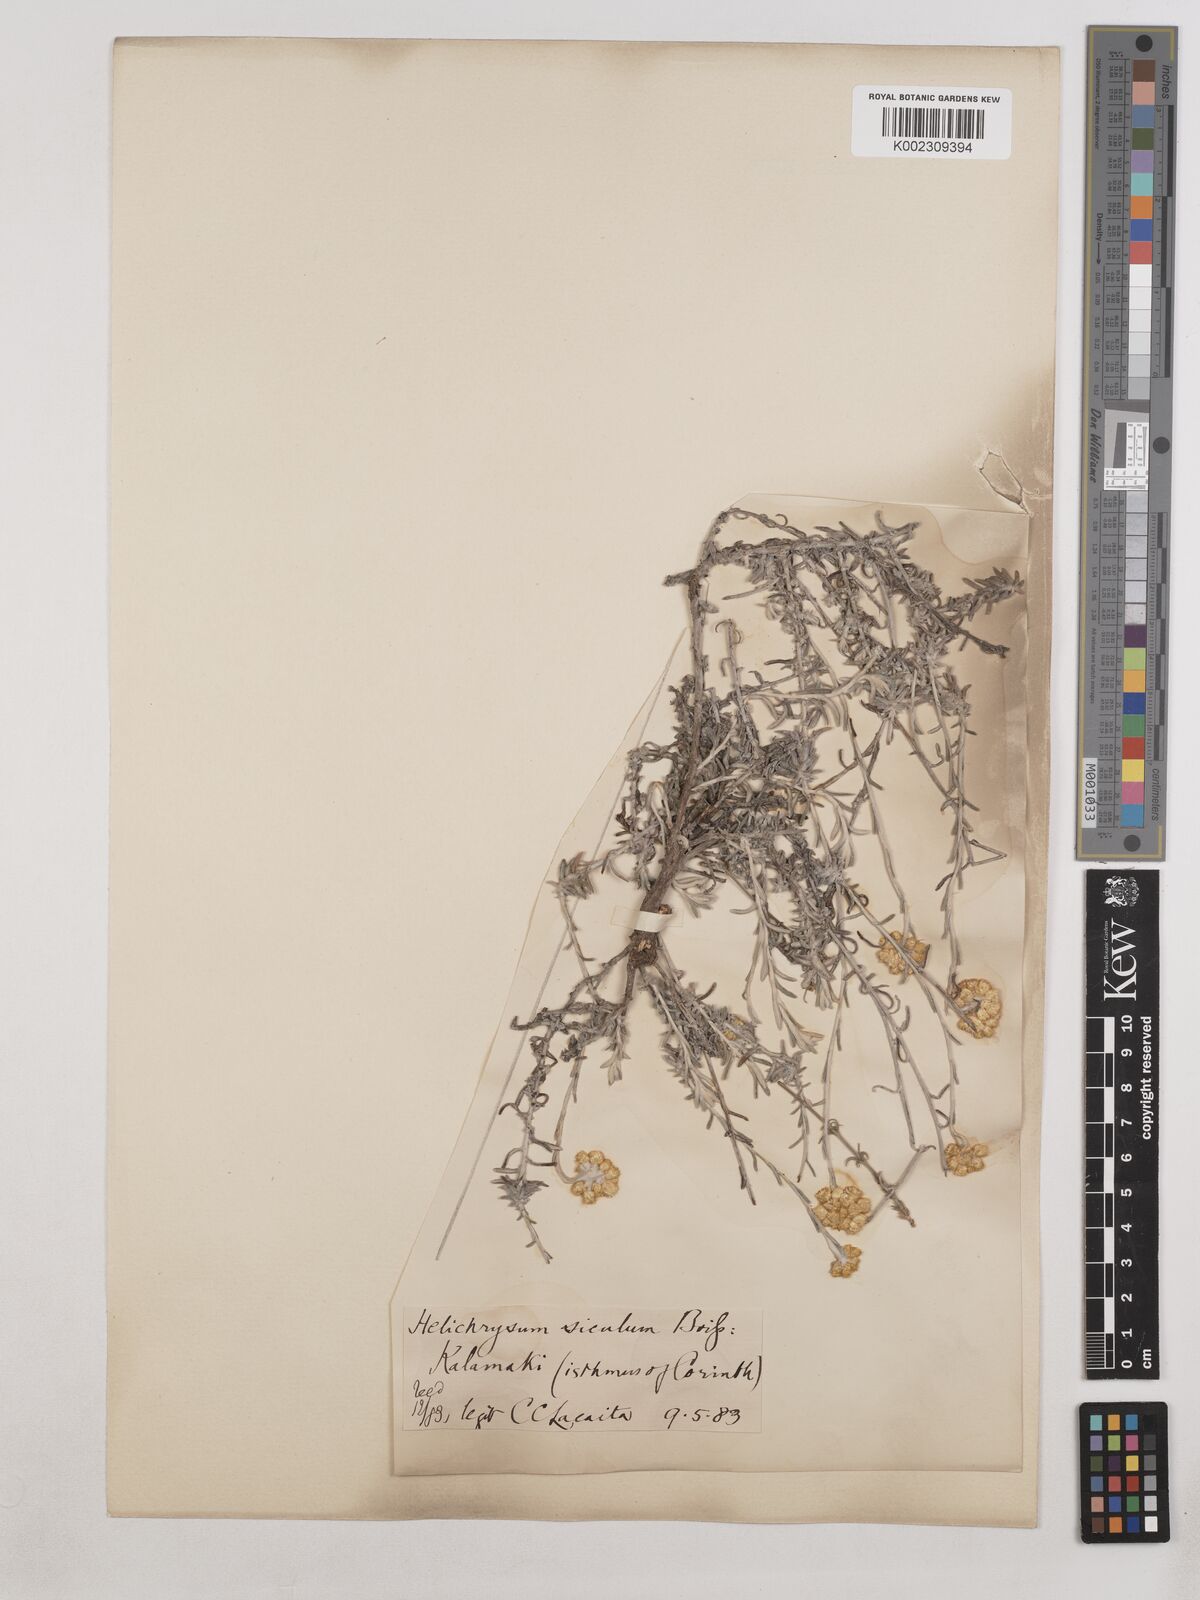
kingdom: Plantae
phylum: Tracheophyta
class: Magnoliopsida
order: Asterales
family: Asteraceae
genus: Helichrysum
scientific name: Helichrysum stoechas
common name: Goldilocks
